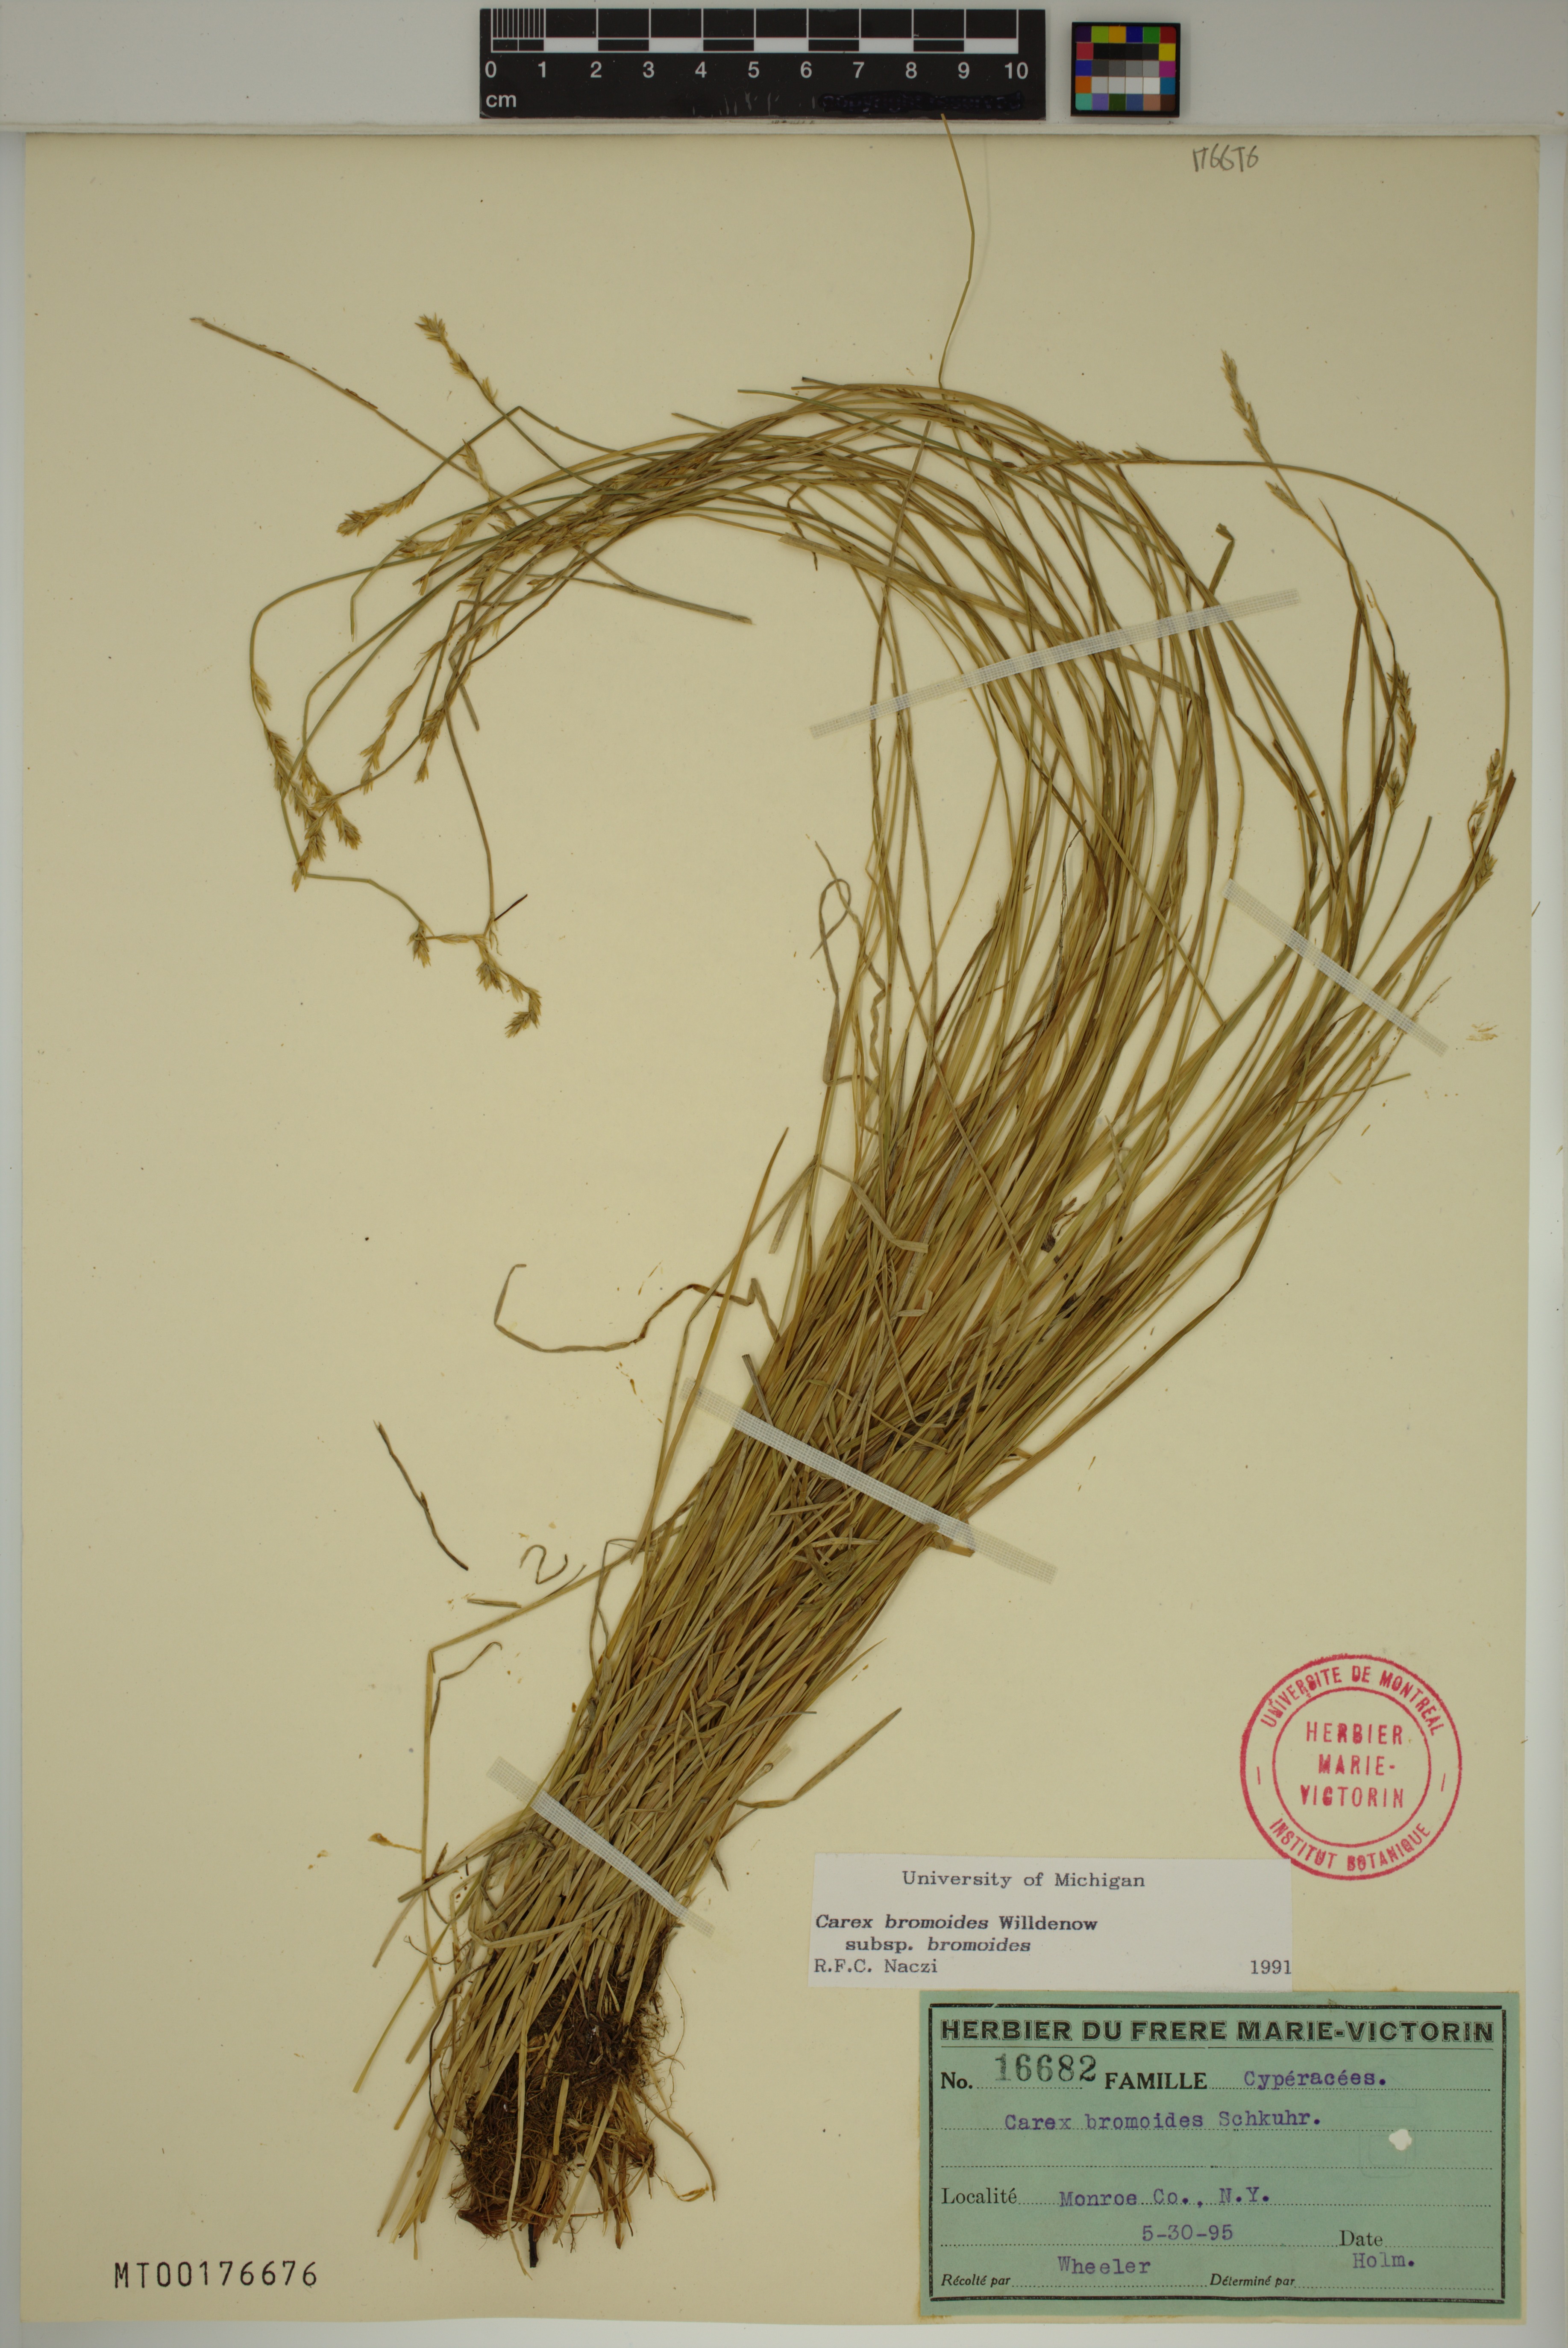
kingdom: Plantae
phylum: Tracheophyta
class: Liliopsida
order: Poales
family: Cyperaceae
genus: Carex
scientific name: Carex bromoides
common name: Brome hummock sedge
